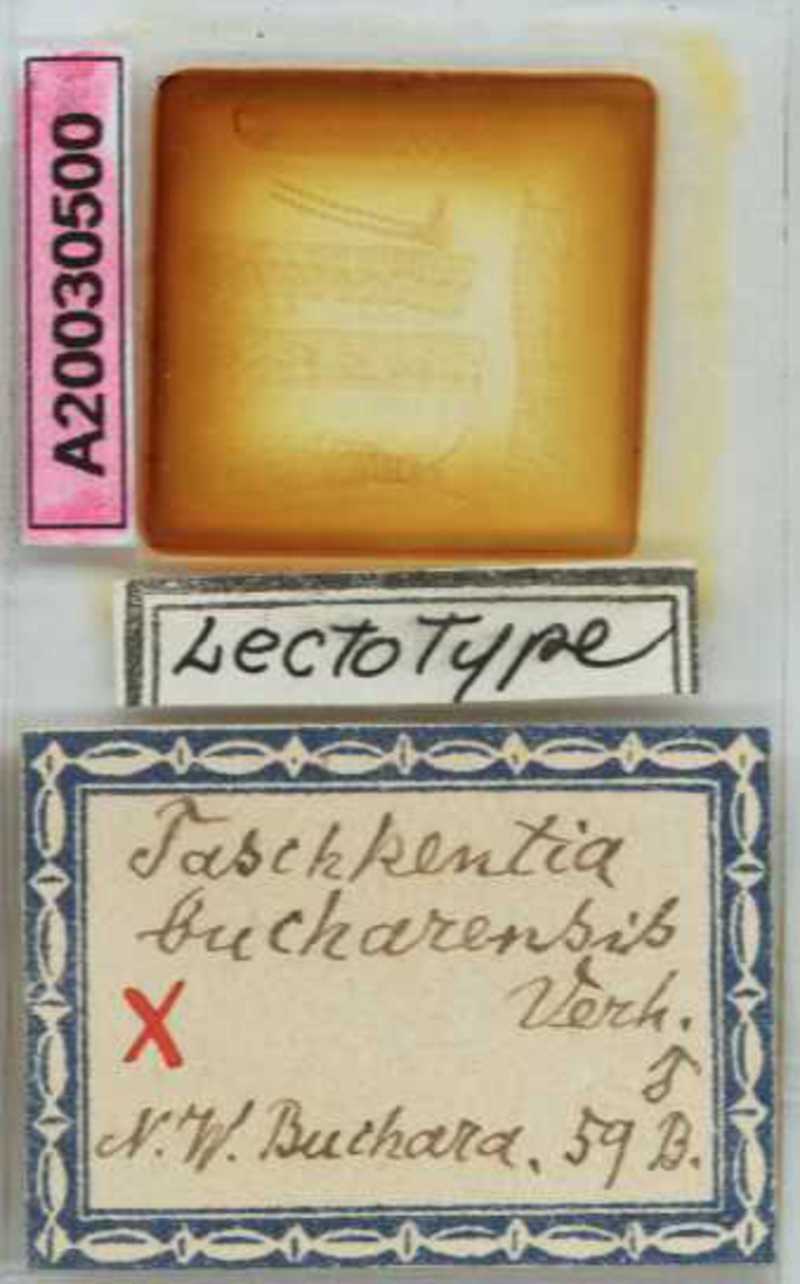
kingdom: Animalia
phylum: Arthropoda
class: Chilopoda
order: Geophilomorpha
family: Geophilidae
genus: Taschkentia
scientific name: Taschkentia bucharensis
